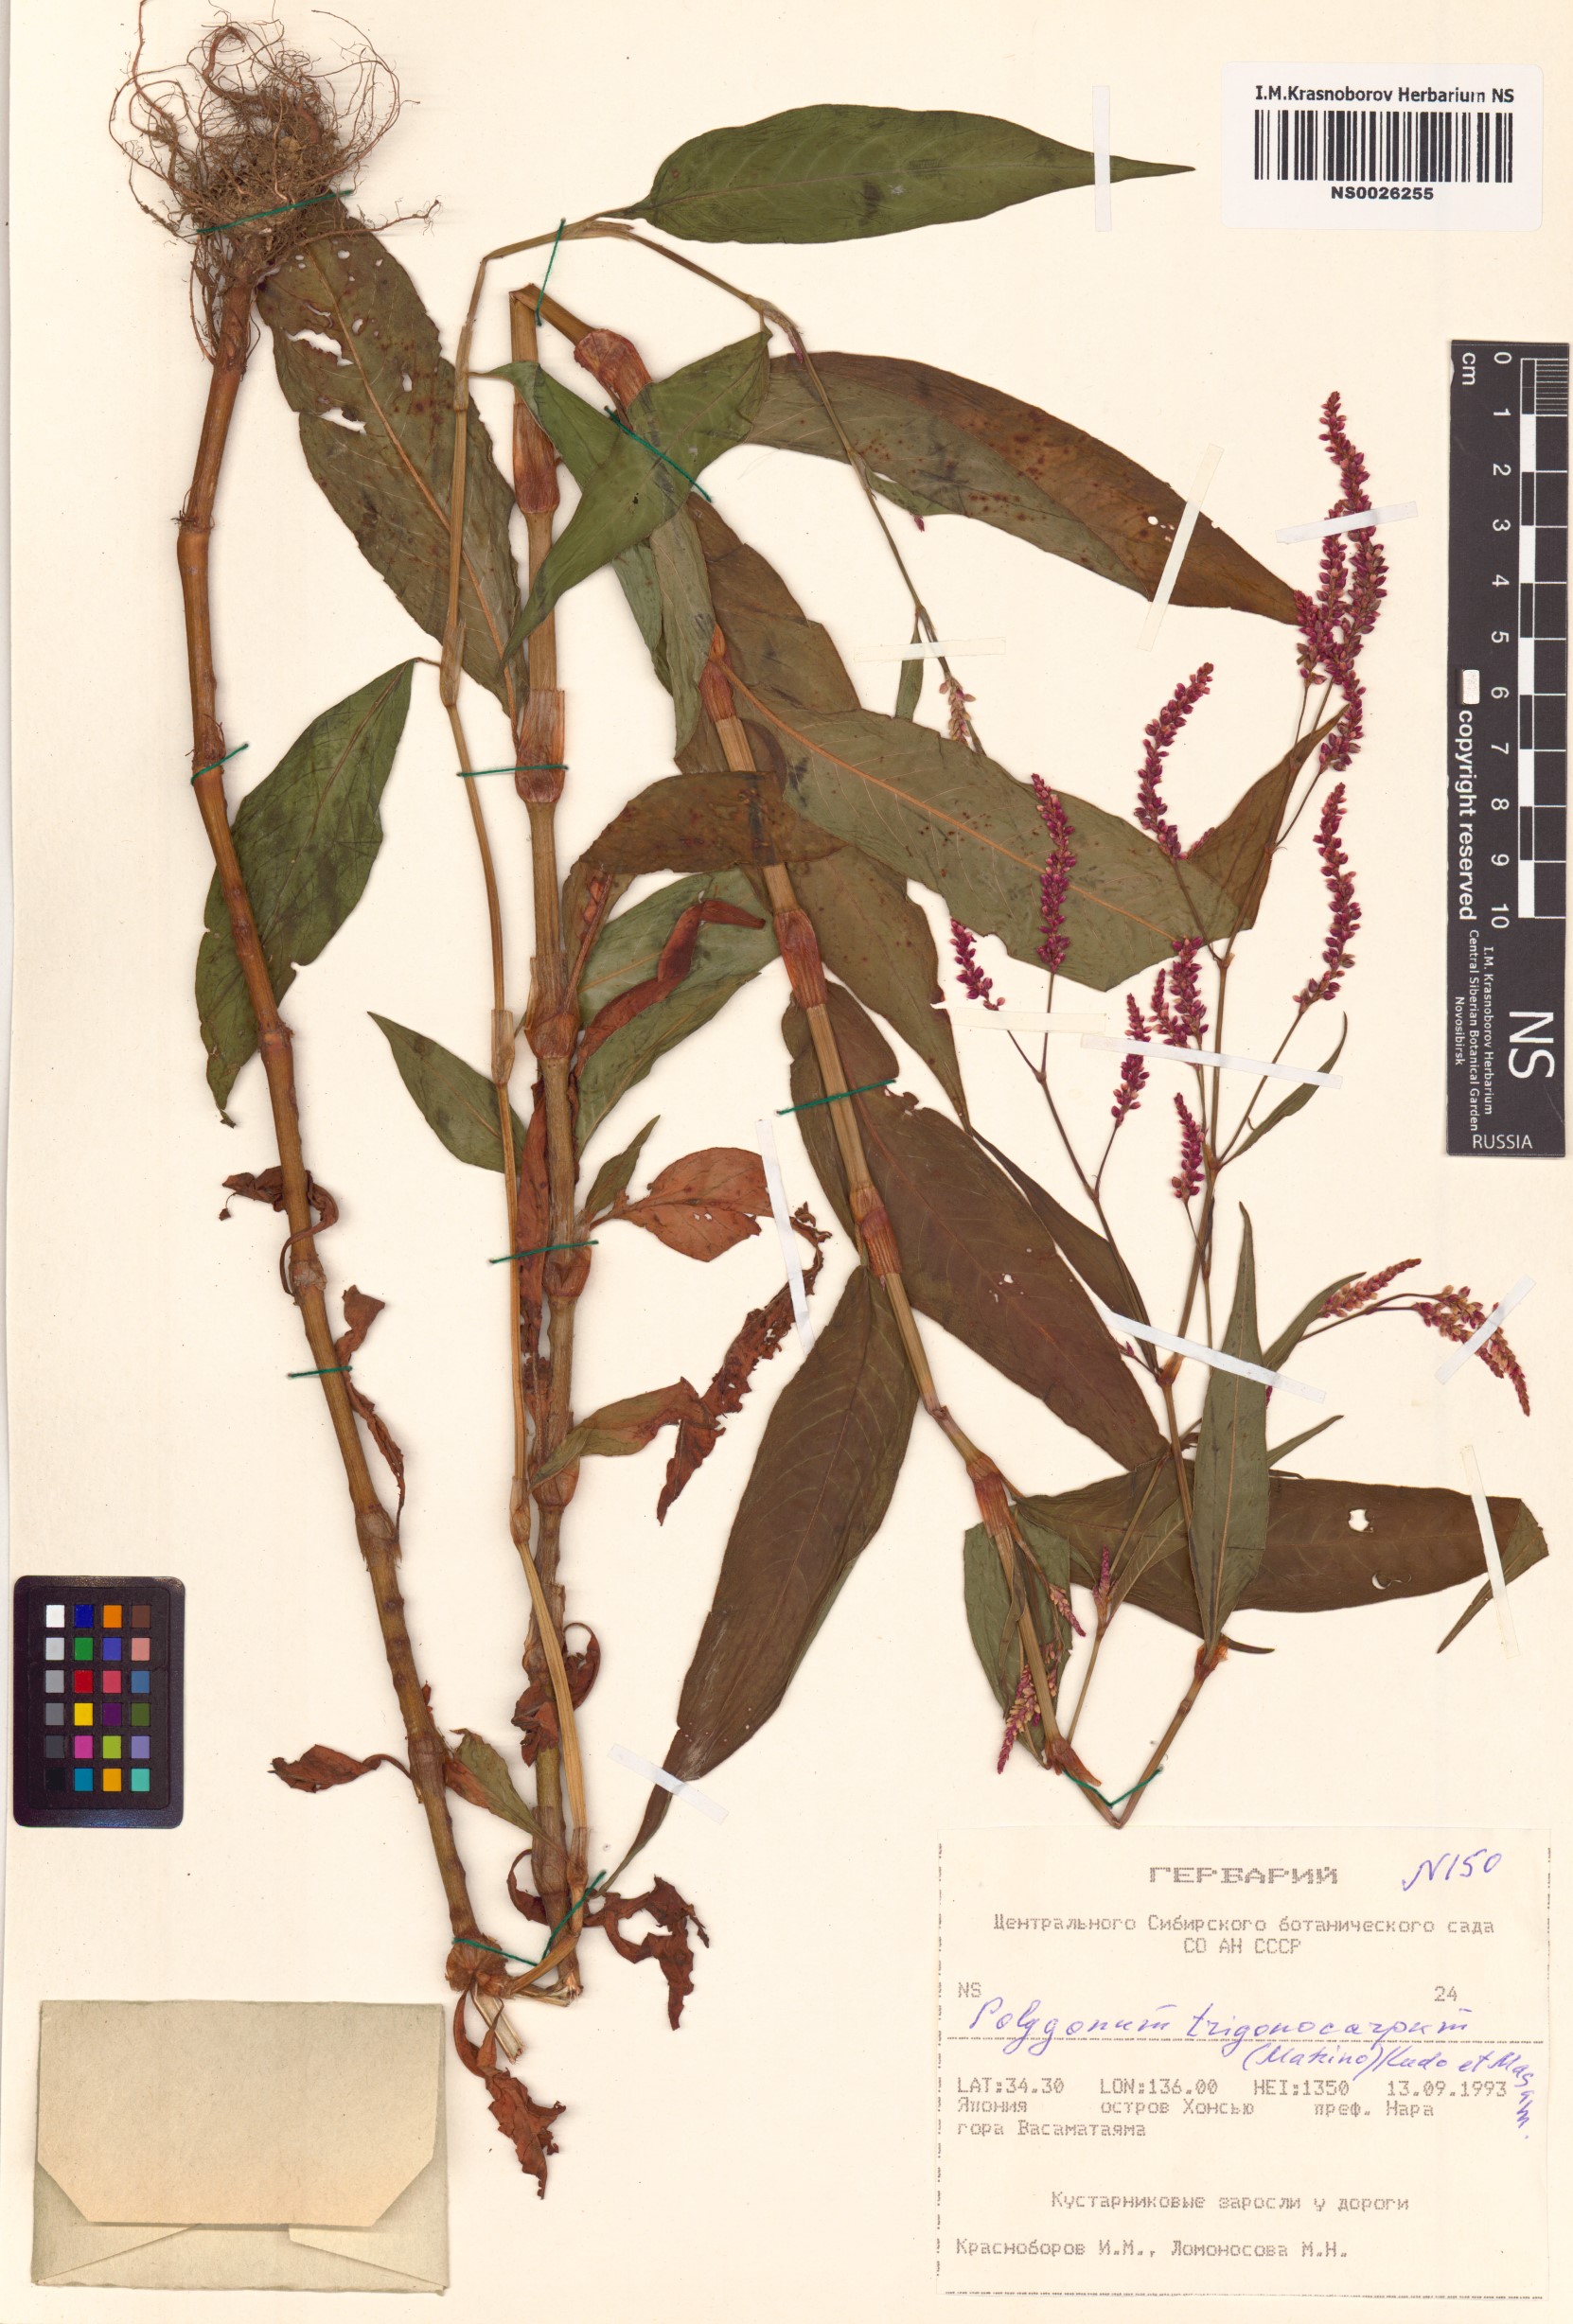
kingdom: Plantae
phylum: Tracheophyta
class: Magnoliopsida
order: Caryophyllales
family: Polygonaceae
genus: Persicaria
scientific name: Persicaria trigonocarpa
